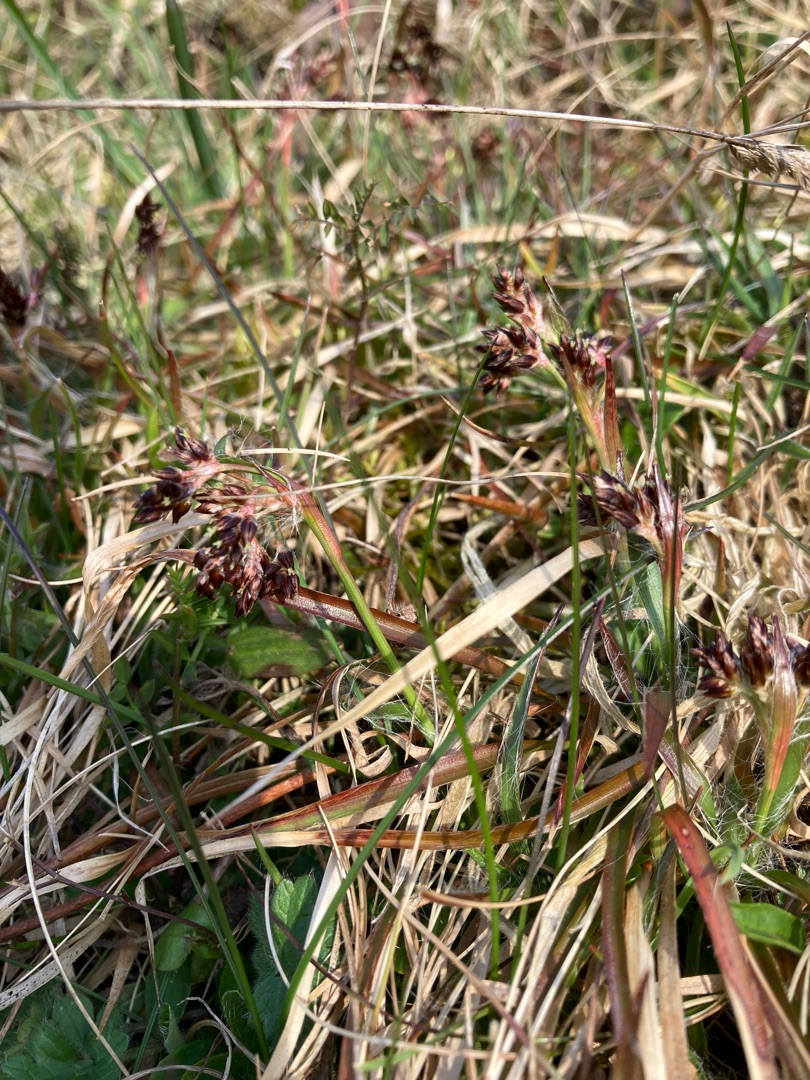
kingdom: Plantae
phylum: Tracheophyta
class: Liliopsida
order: Poales
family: Juncaceae
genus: Luzula
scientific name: Luzula campestris
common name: Mark-frytle
